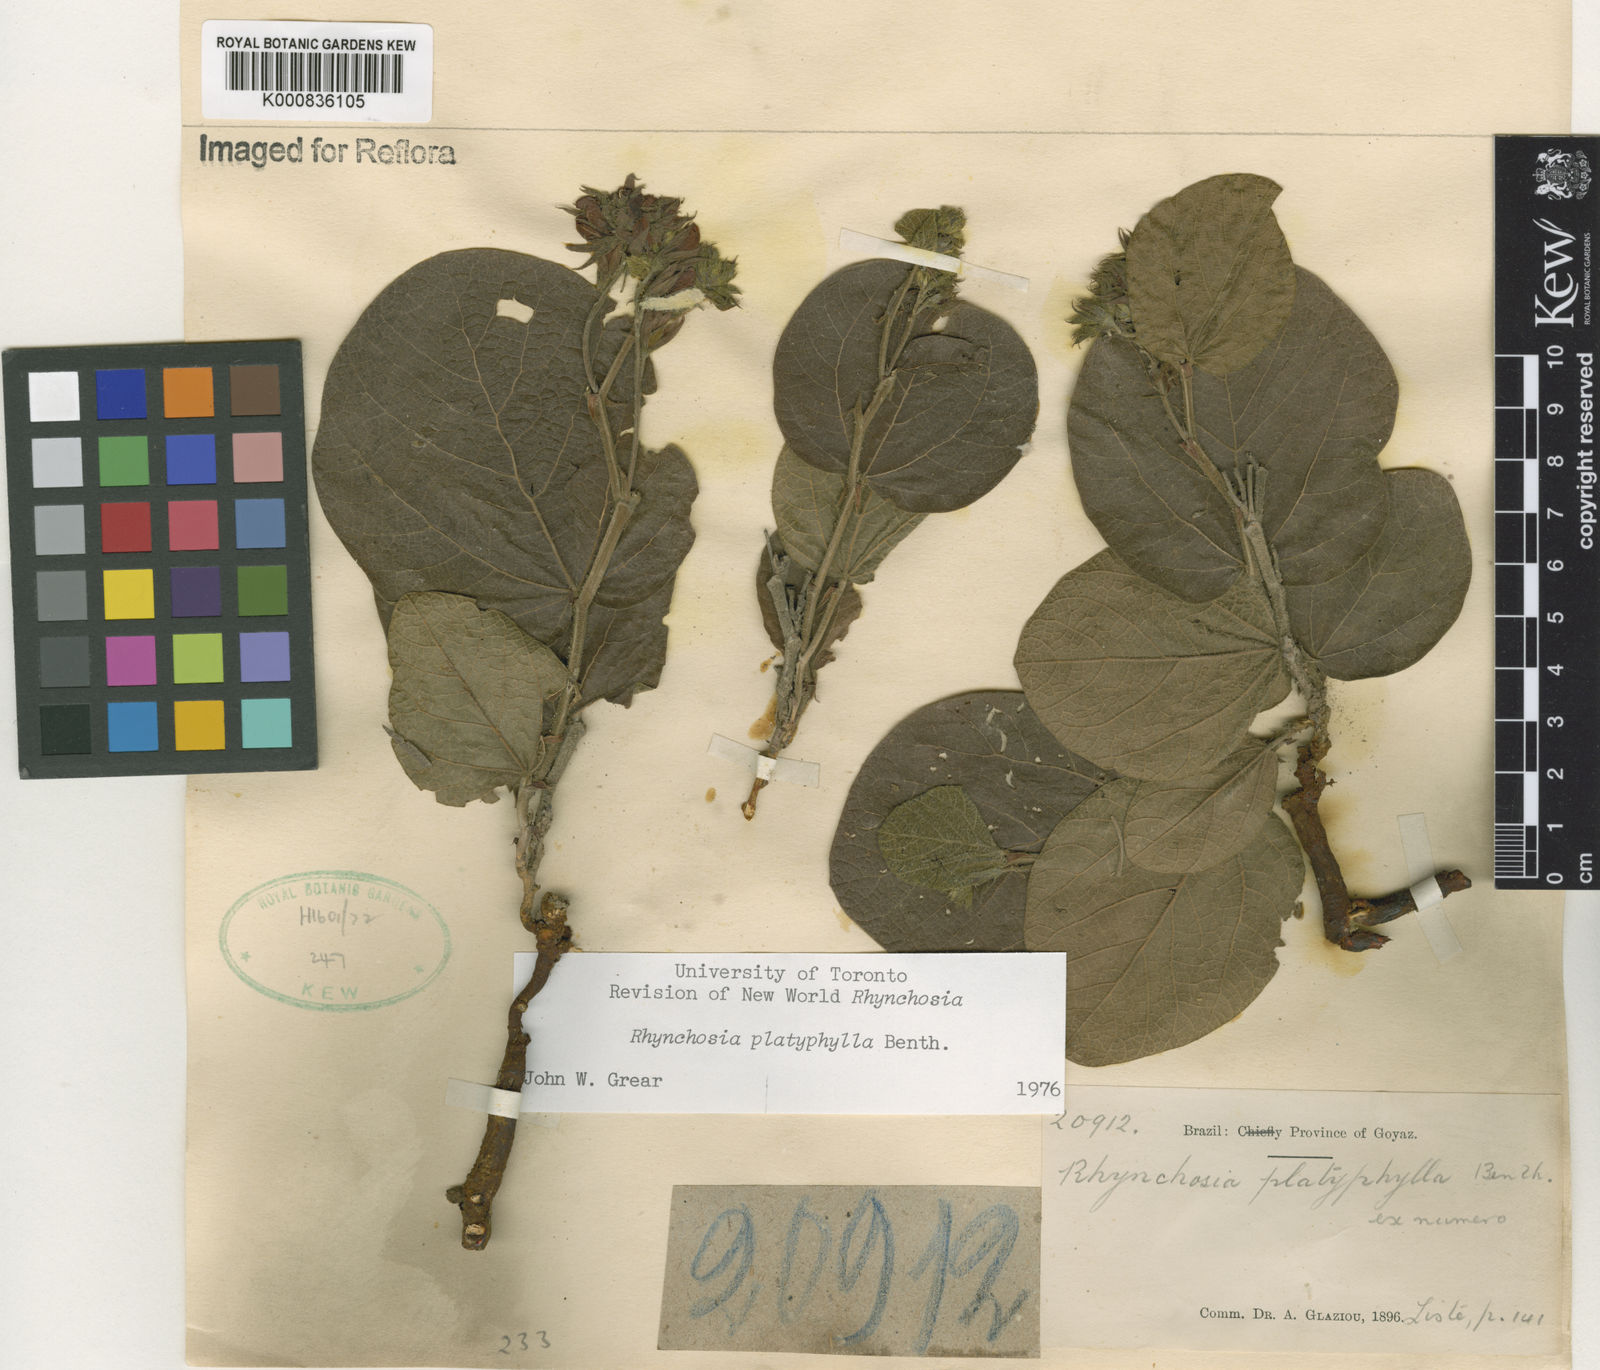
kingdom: Plantae
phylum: Tracheophyta
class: Magnoliopsida
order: Fabales
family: Fabaceae
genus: Rhynchosia
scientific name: Rhynchosia platyphylla
